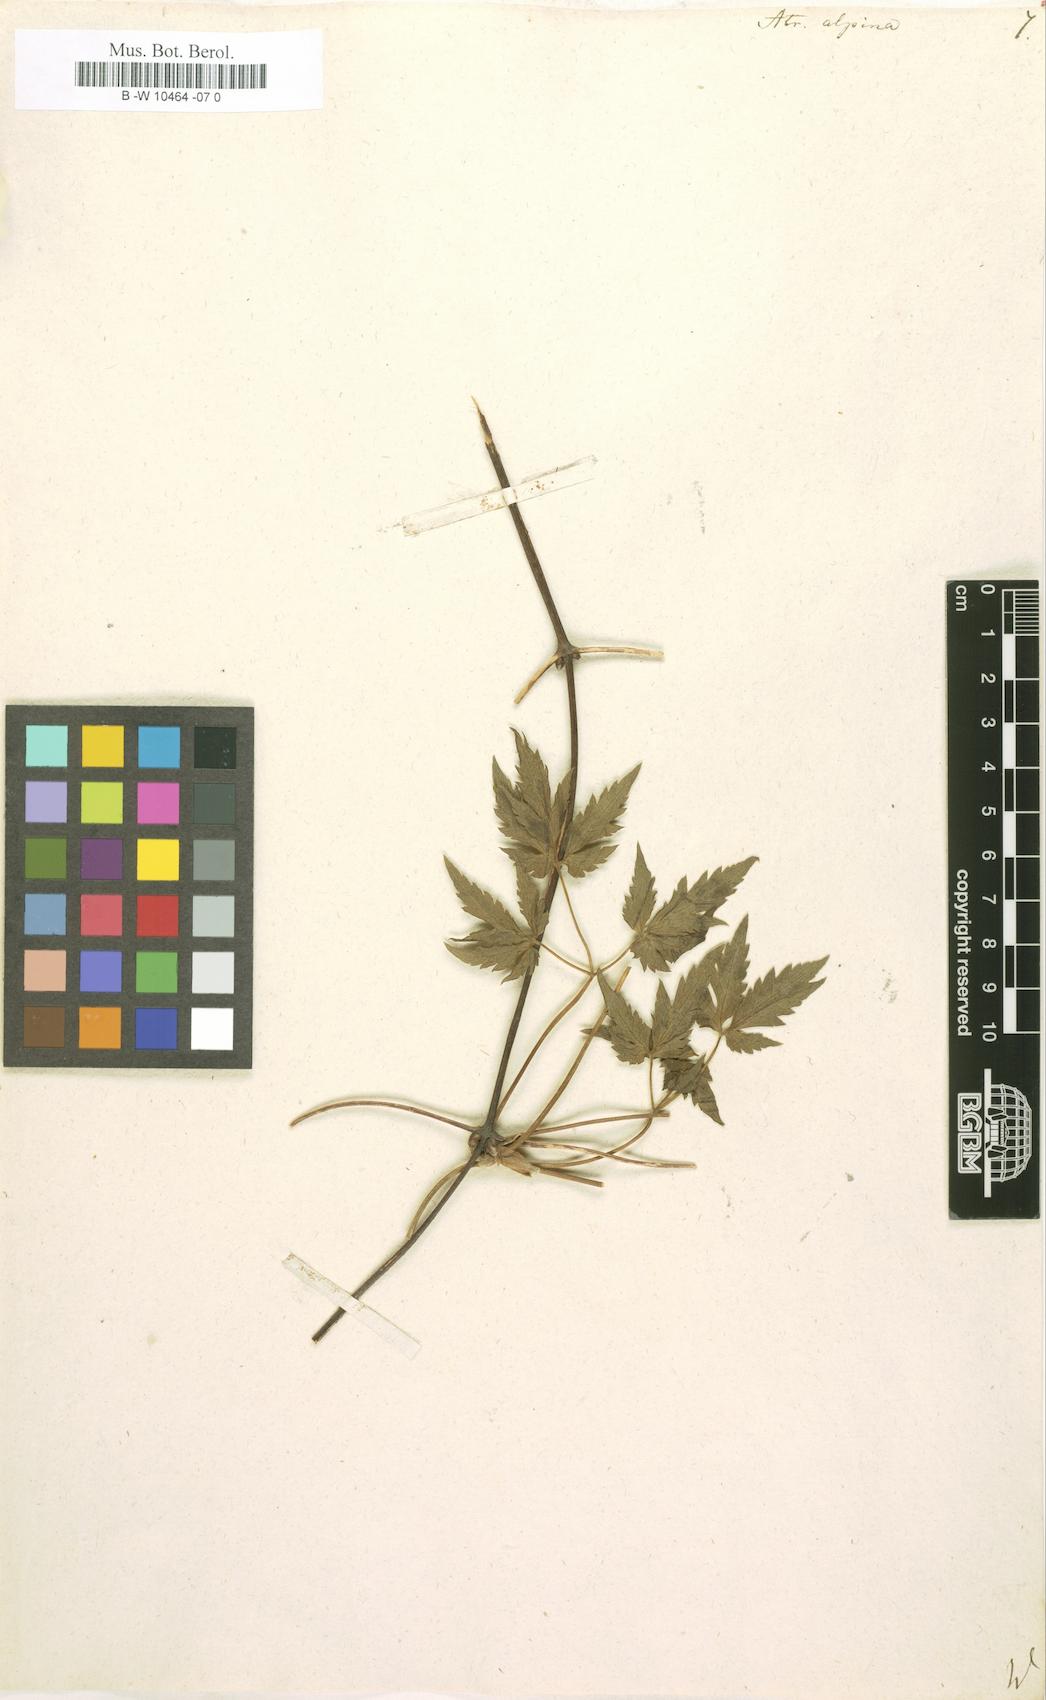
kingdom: Plantae
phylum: Tracheophyta
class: Magnoliopsida
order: Ranunculales
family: Ranunculaceae
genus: Clematis
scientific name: Clematis alpina
